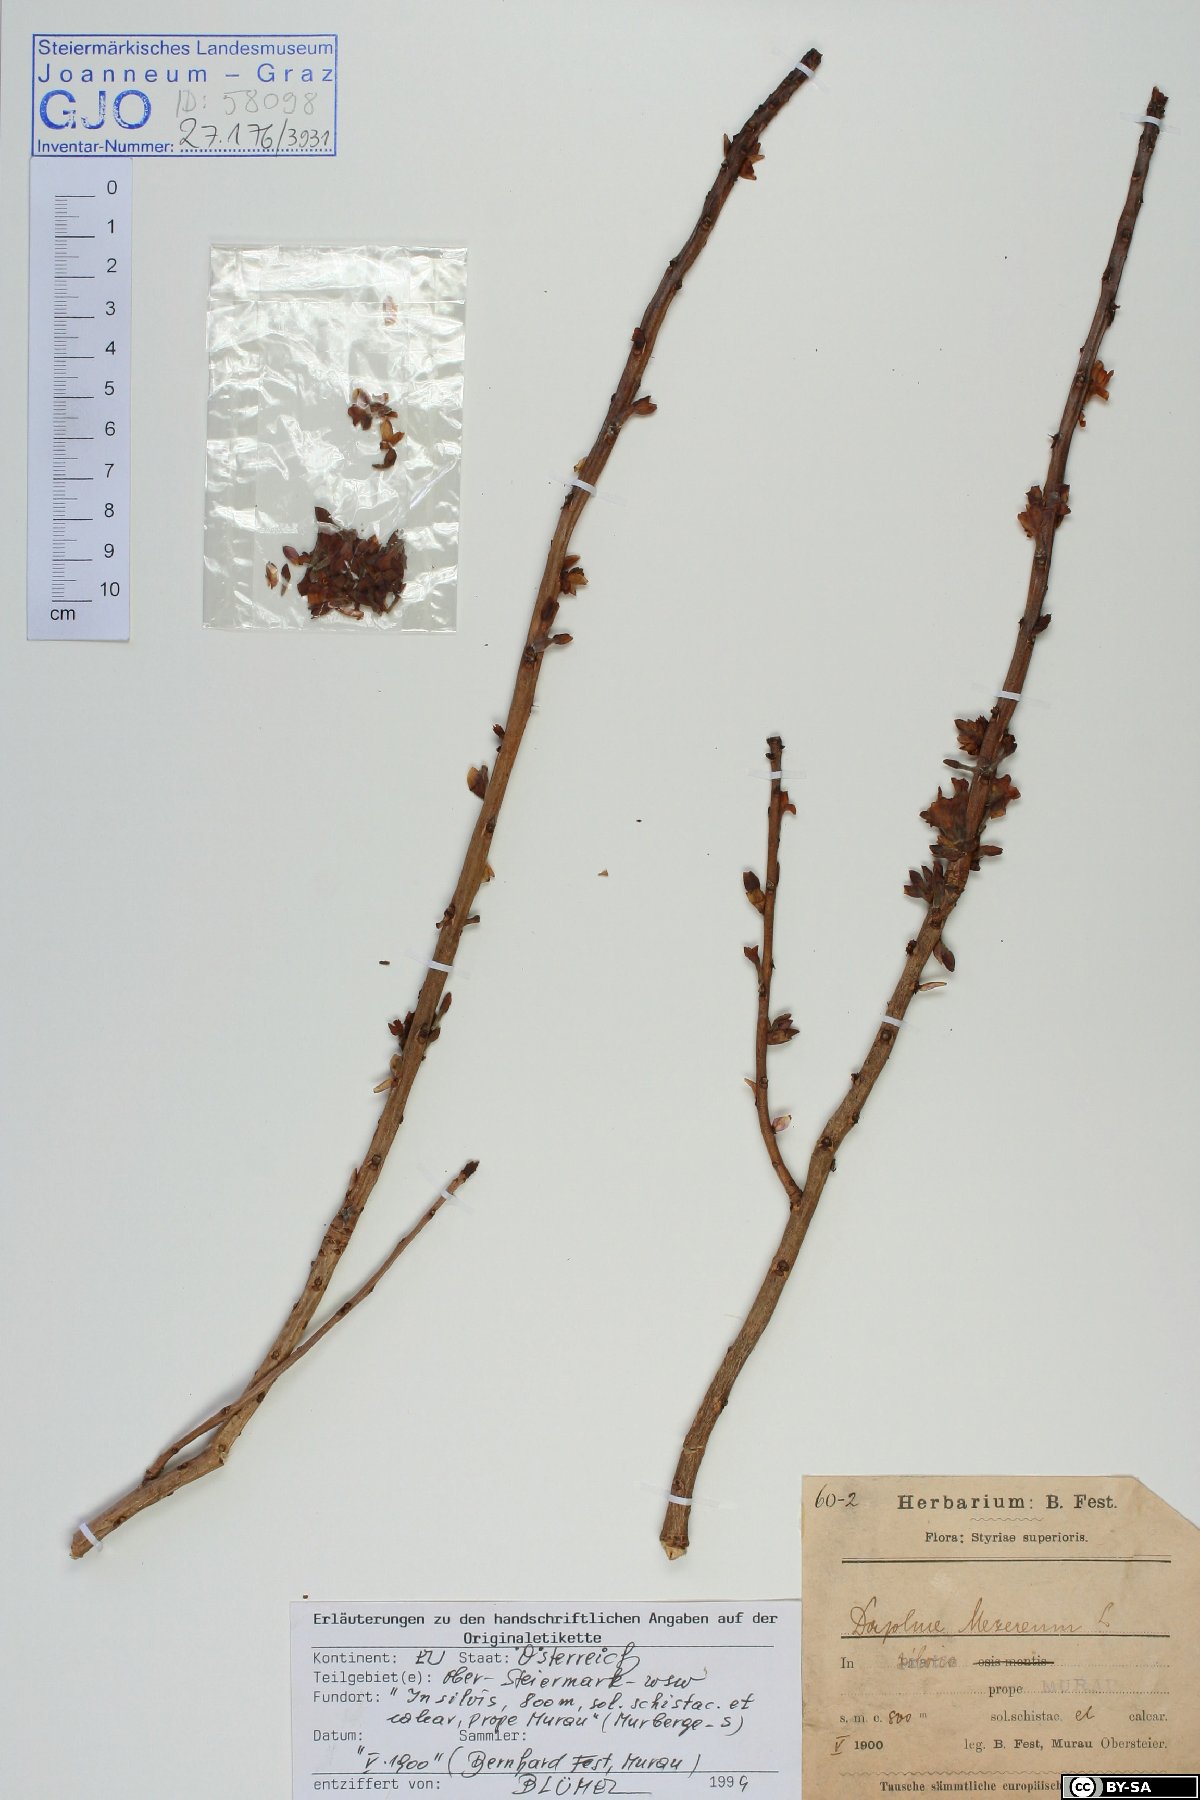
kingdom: Plantae
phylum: Tracheophyta
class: Magnoliopsida
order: Malvales
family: Thymelaeaceae
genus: Daphne
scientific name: Daphne mezereum
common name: Mezereon
